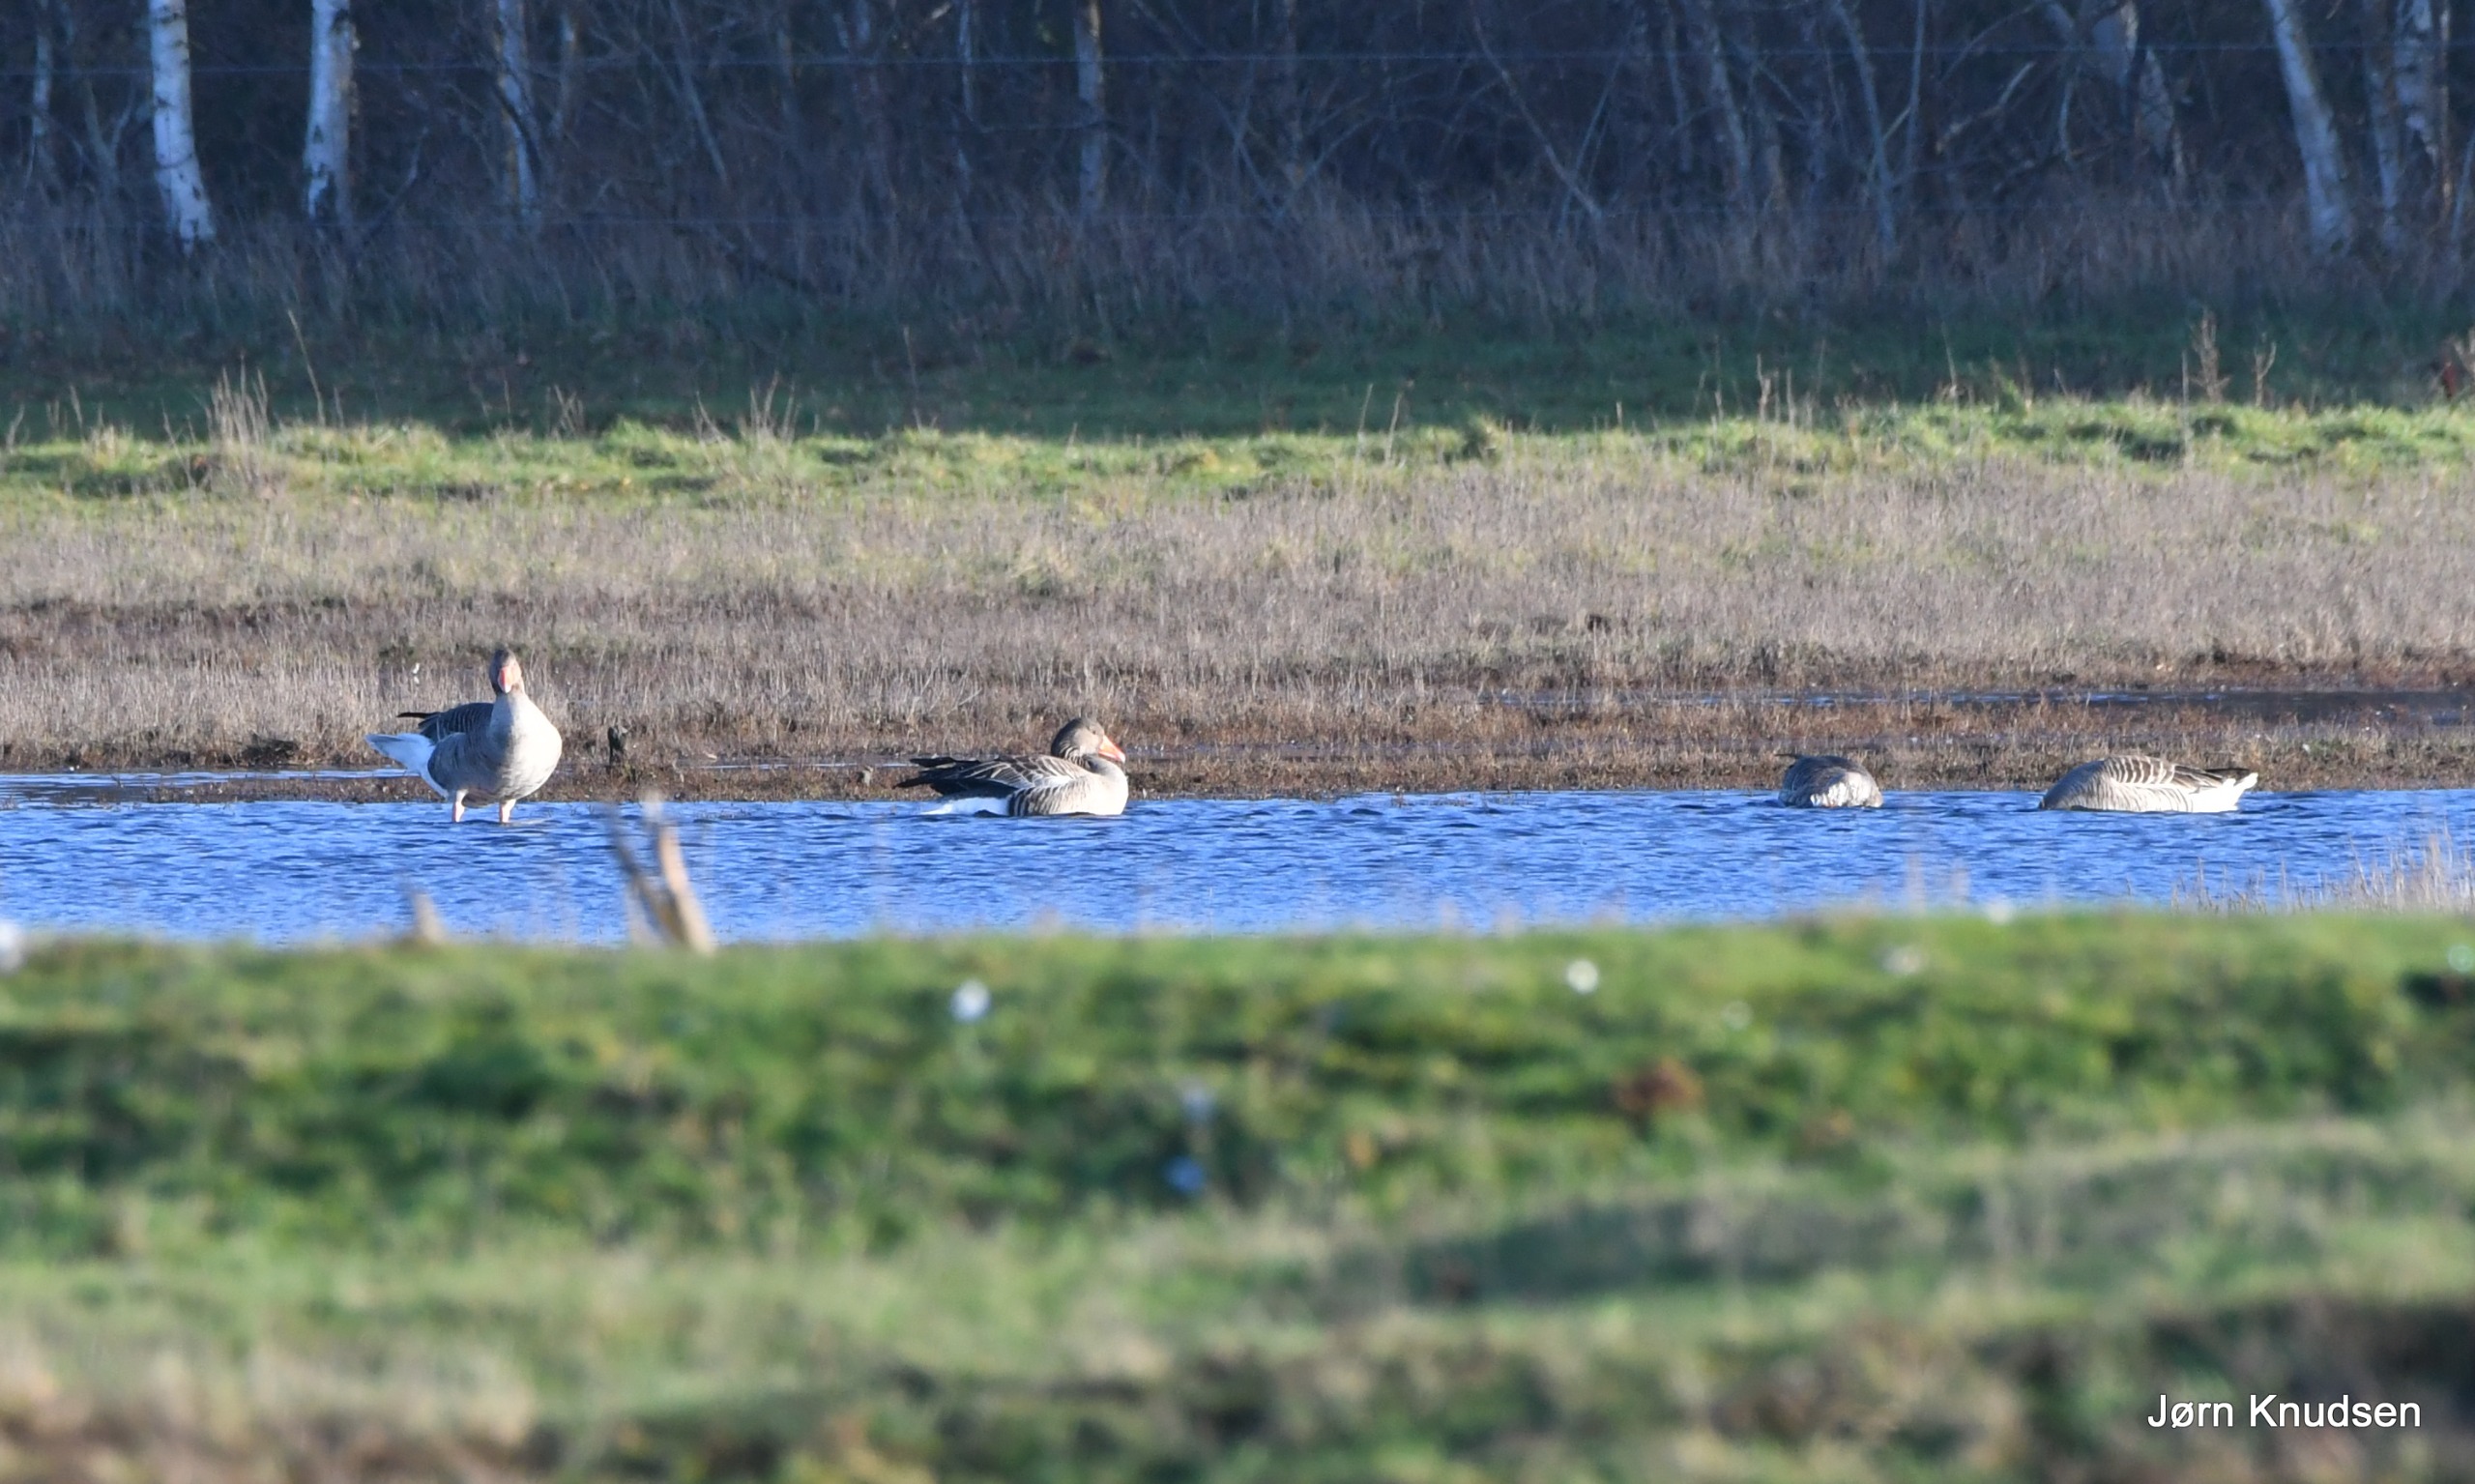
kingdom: Animalia
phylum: Chordata
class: Aves
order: Anseriformes
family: Anatidae
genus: Anser
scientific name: Anser anser
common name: Grågås
